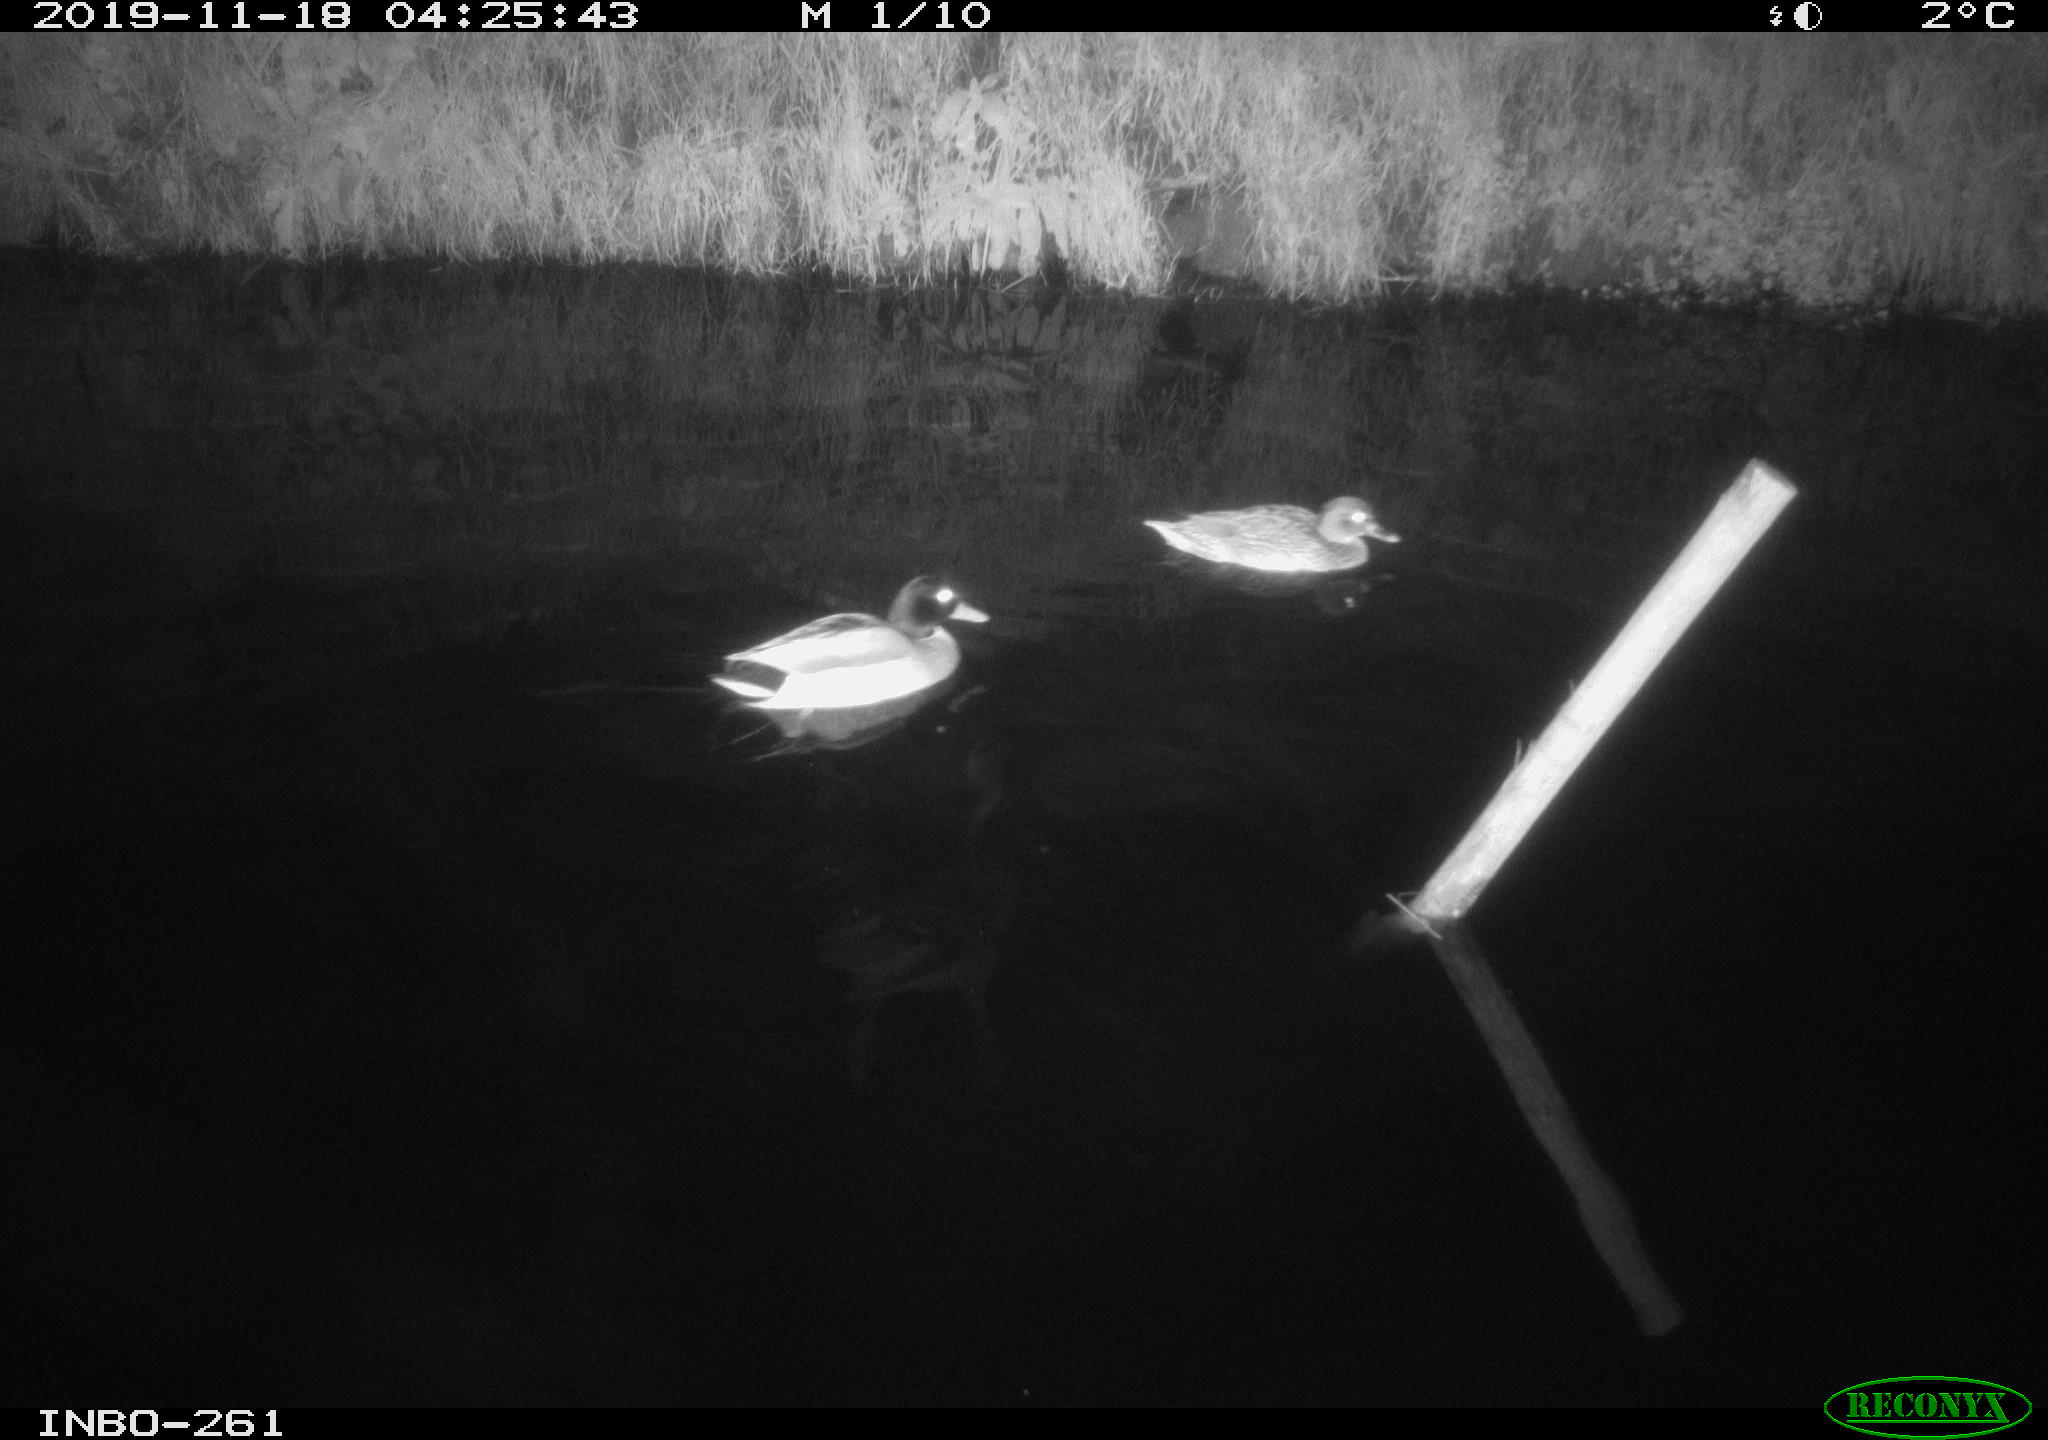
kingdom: Animalia
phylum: Chordata
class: Aves
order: Anseriformes
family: Anatidae
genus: Anas
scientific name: Anas platyrhynchos
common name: Mallard
